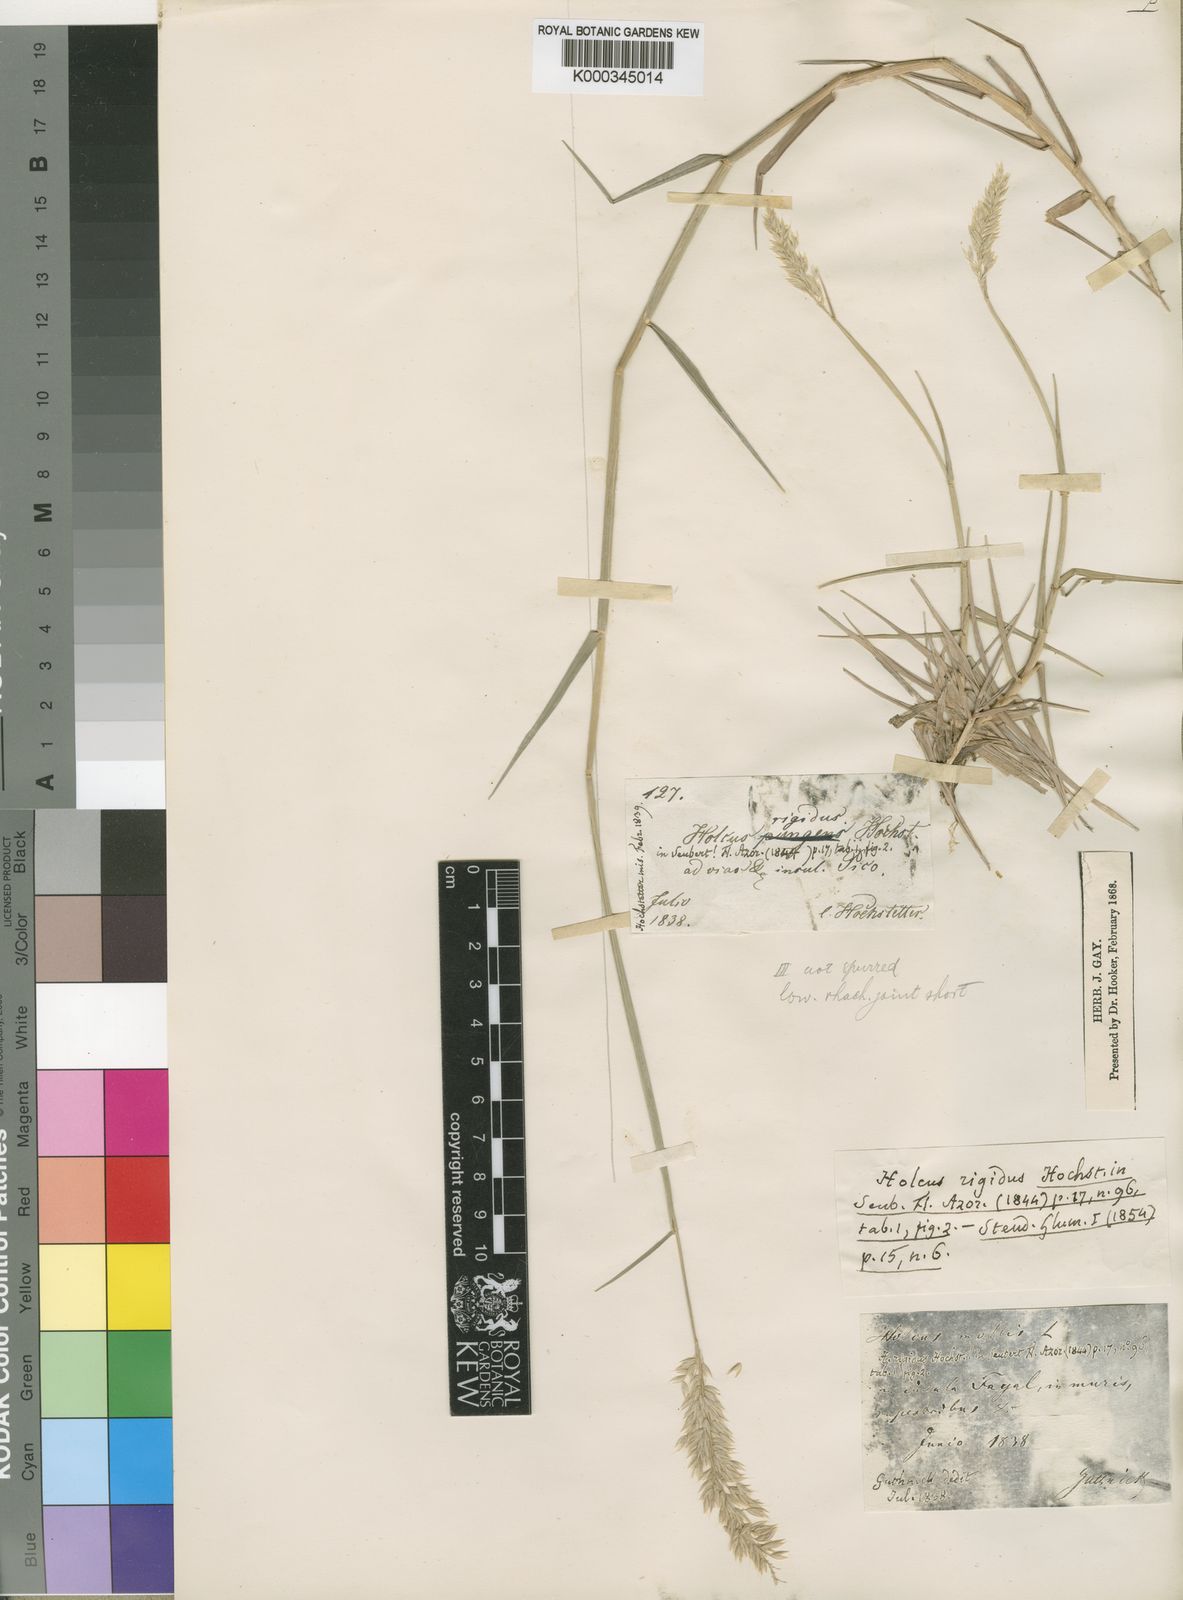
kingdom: Plantae
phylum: Tracheophyta
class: Liliopsida
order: Poales
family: Poaceae
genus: Holcus
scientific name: Holcus rigidus
